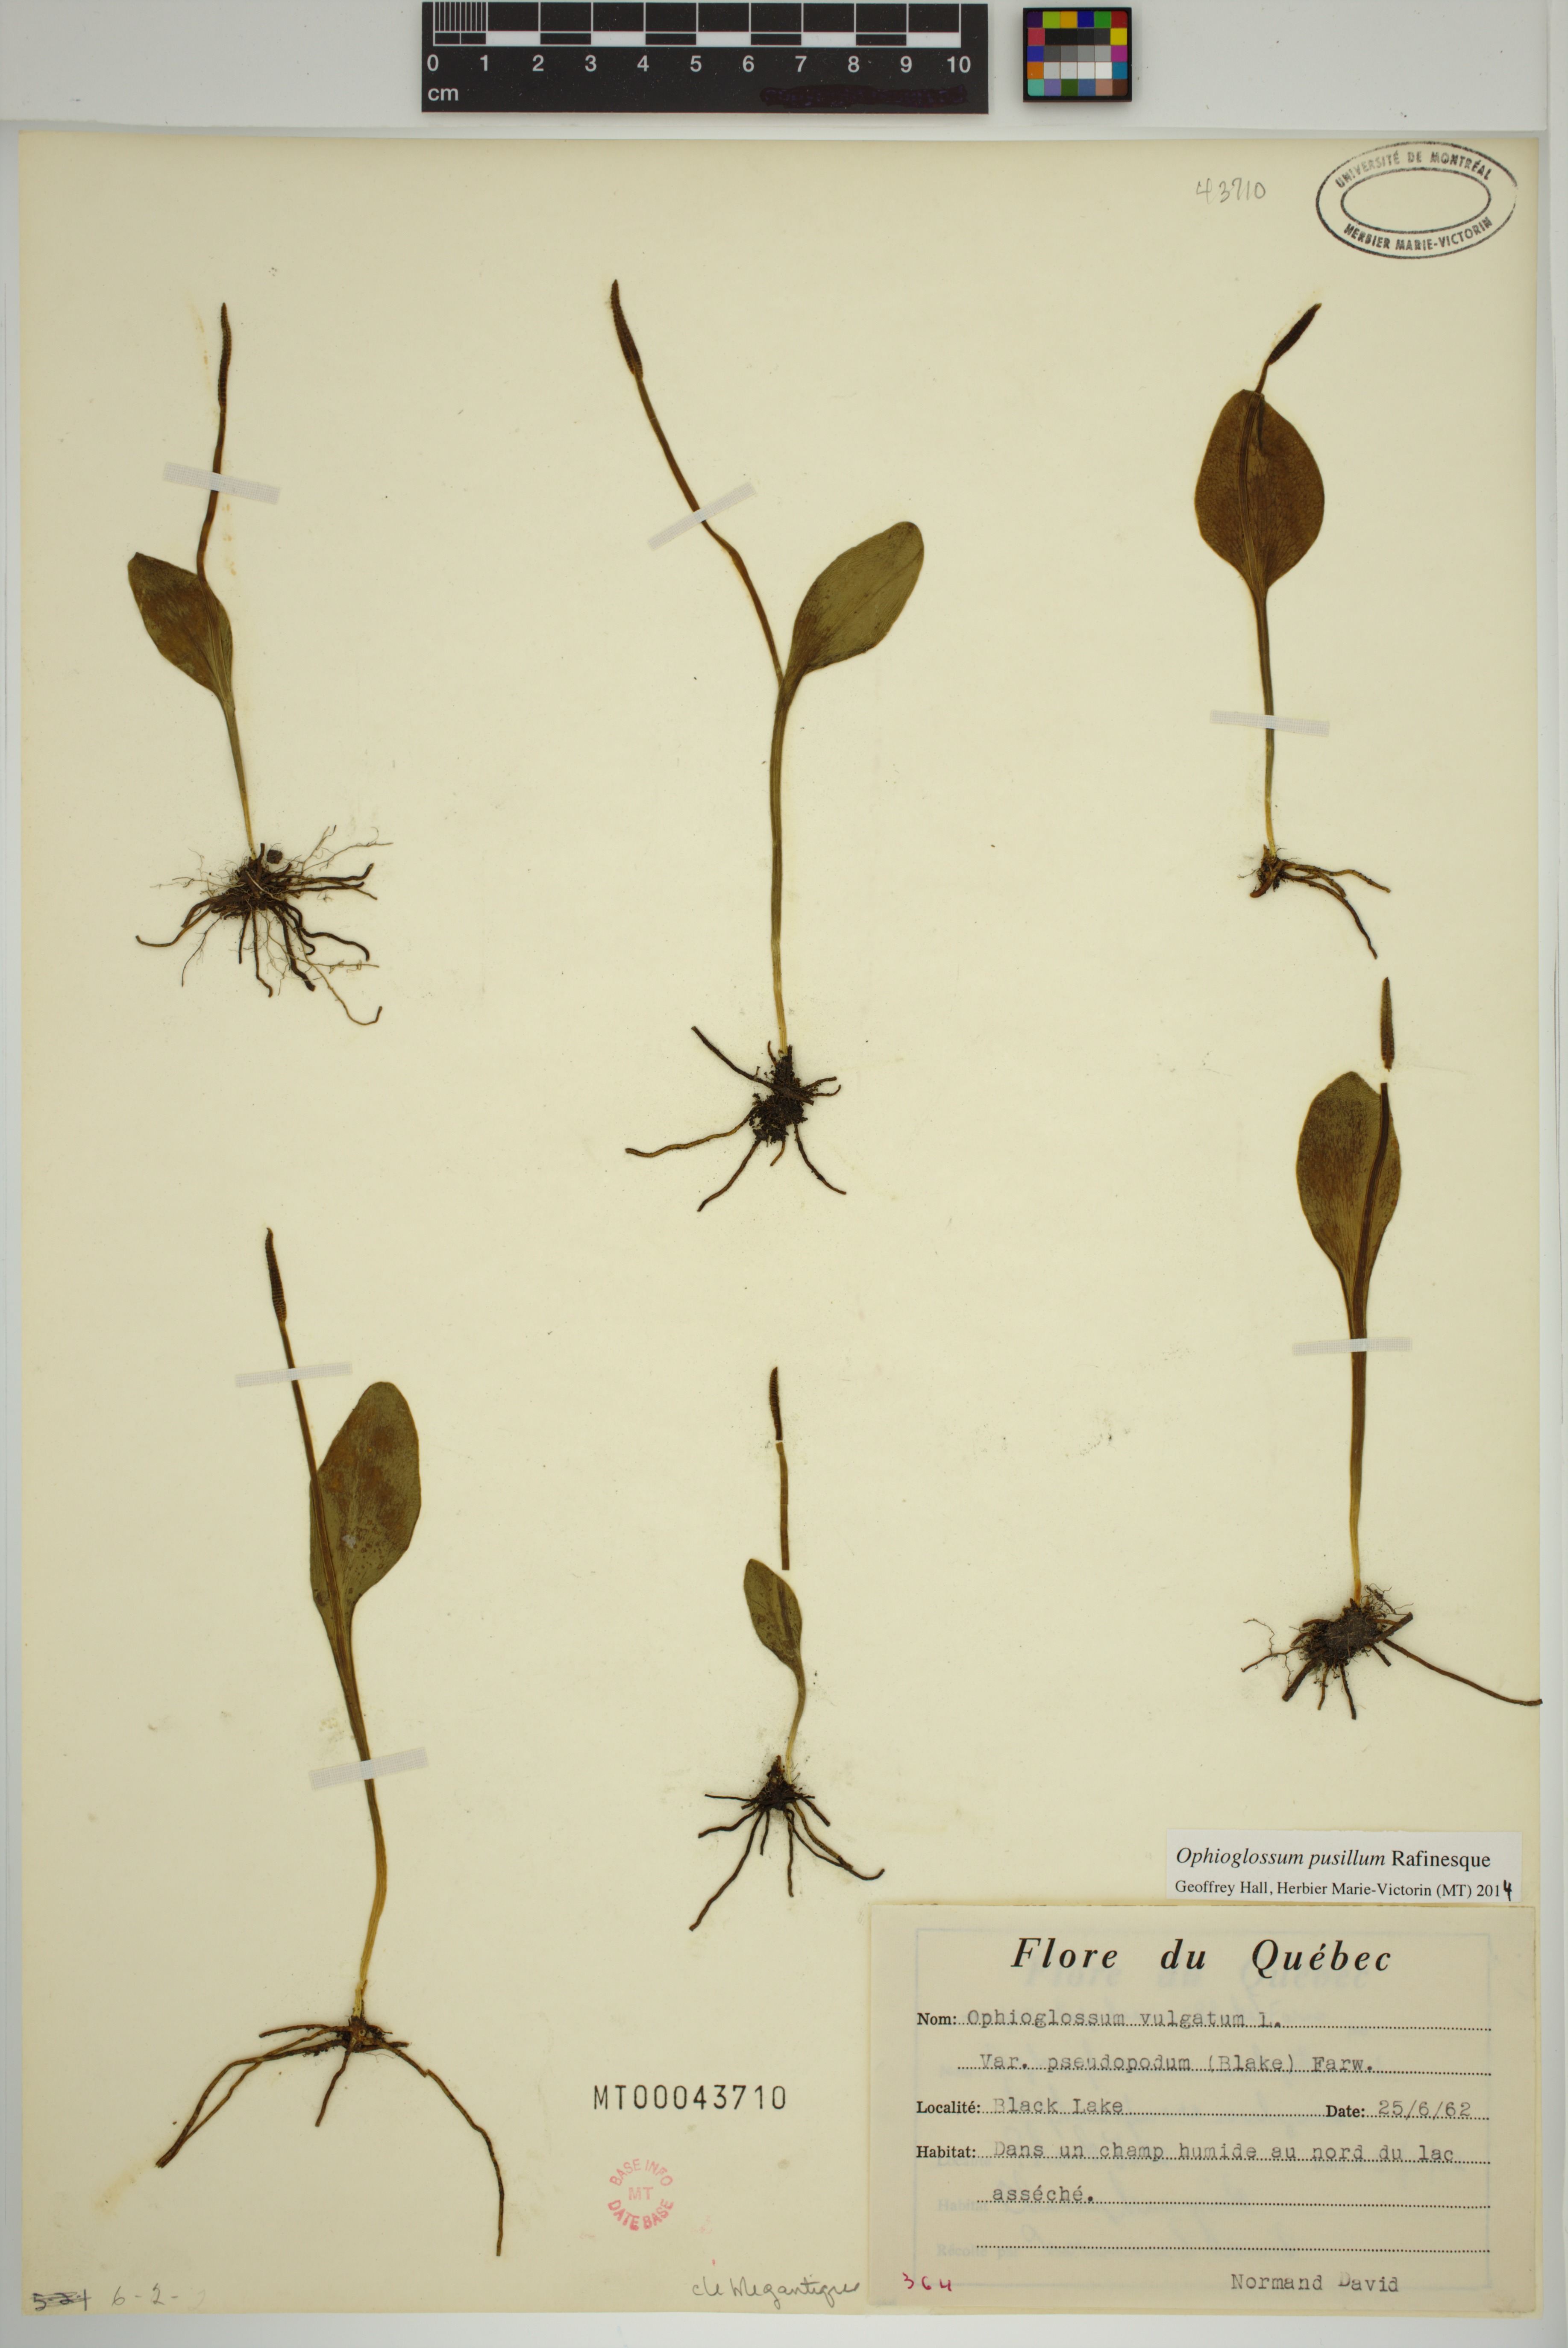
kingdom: Plantae
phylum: Tracheophyta
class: Polypodiopsida
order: Ophioglossales
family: Ophioglossaceae
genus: Ophioglossum
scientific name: Ophioglossum pusillum
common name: Northern adder's-tongue
